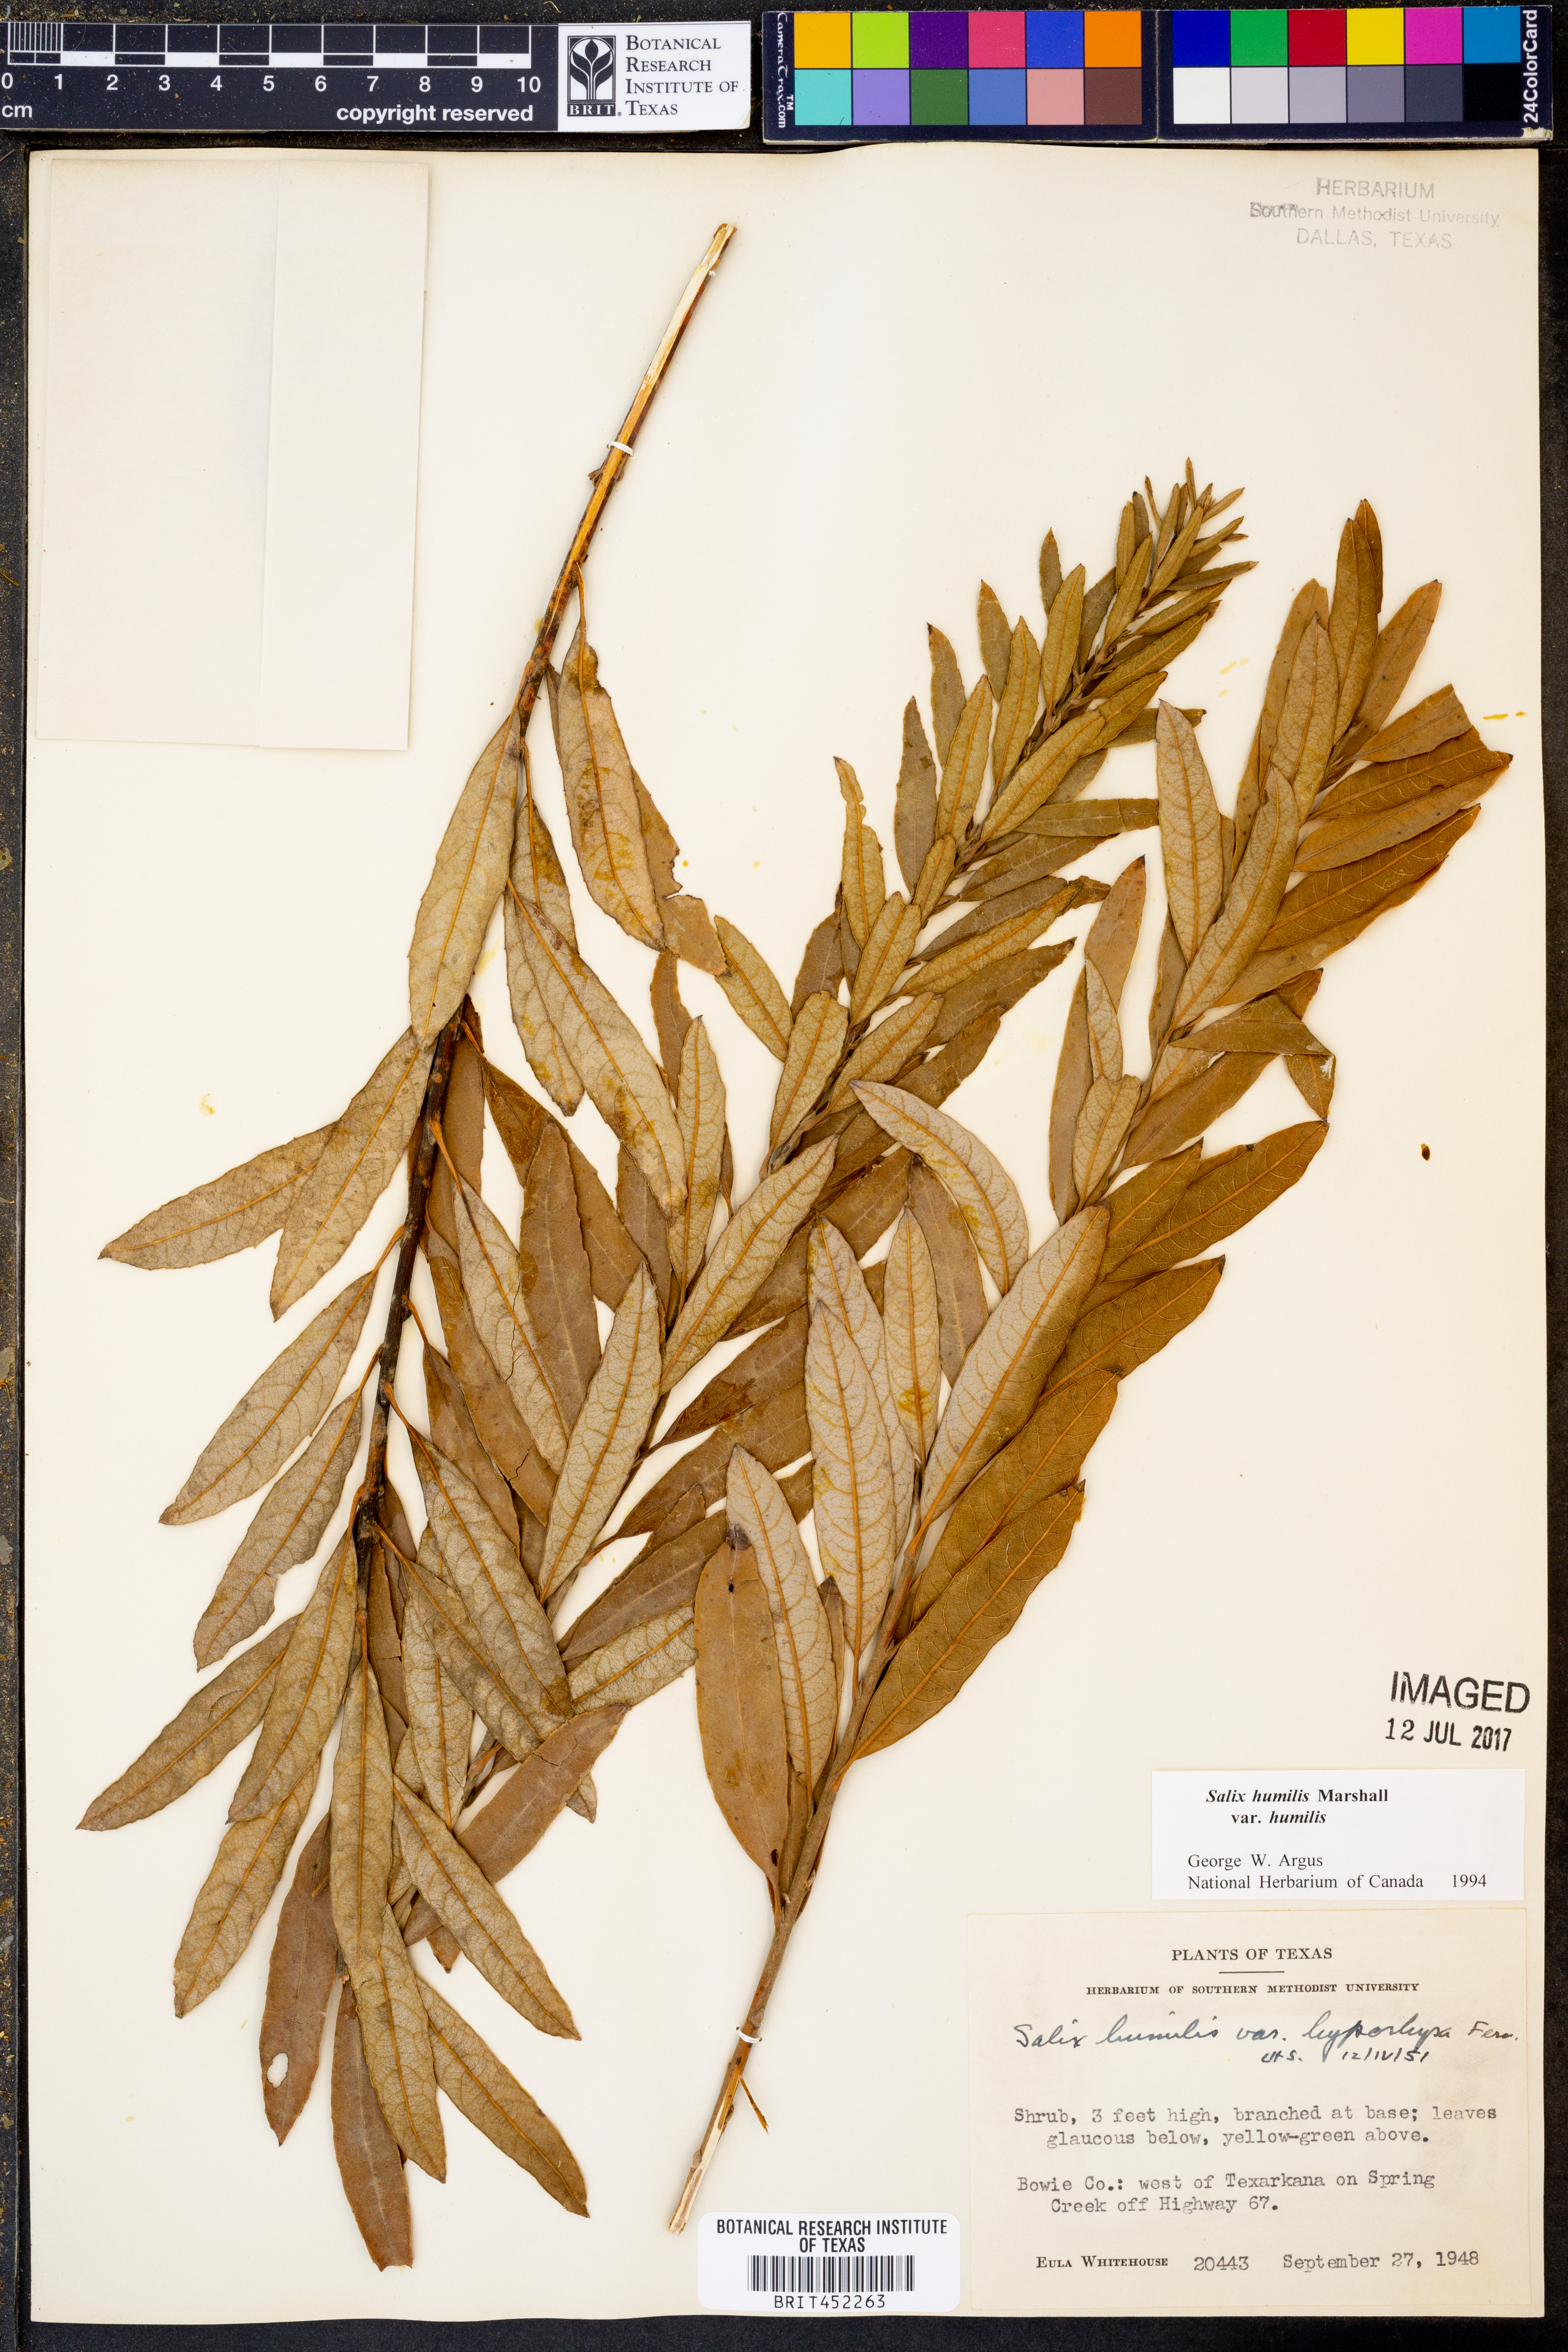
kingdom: Plantae
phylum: Tracheophyta
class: Magnoliopsida
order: Malpighiales
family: Salicaceae
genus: Salix
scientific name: Salix humilis
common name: Prairie willow
